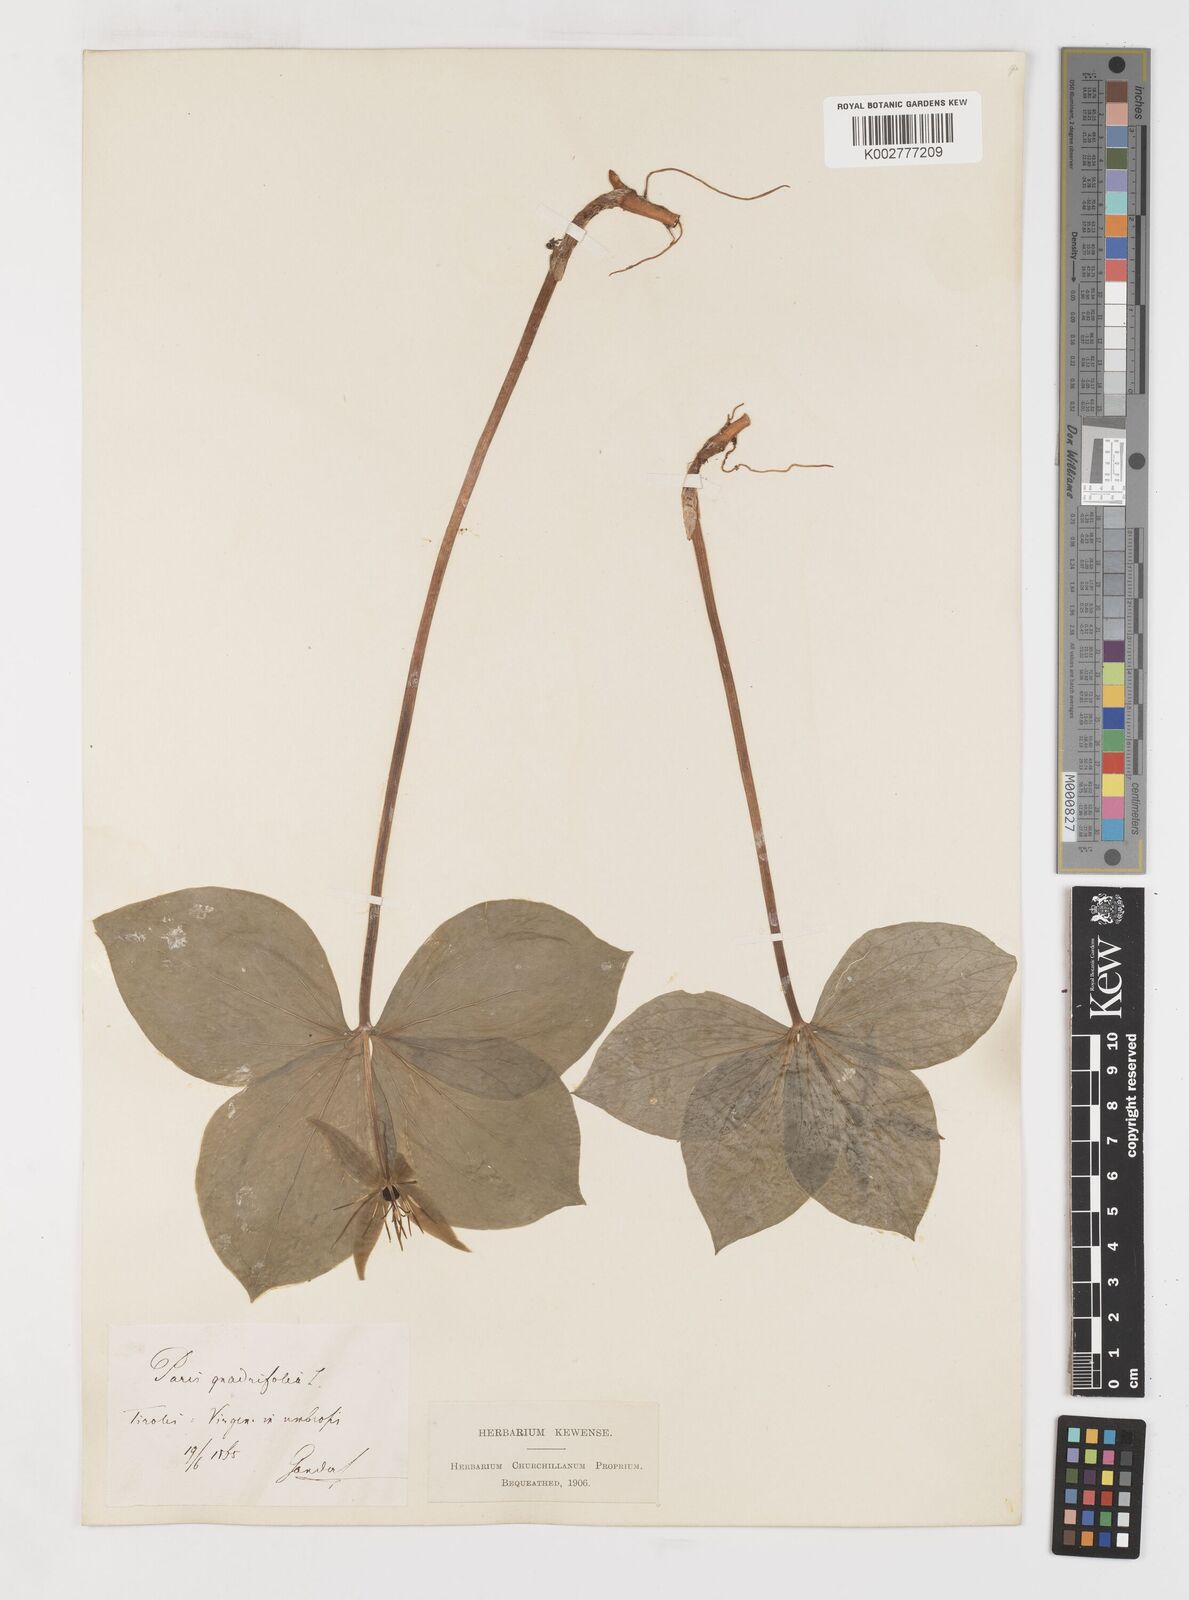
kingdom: Plantae
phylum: Tracheophyta
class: Liliopsida
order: Liliales
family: Melanthiaceae
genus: Paris
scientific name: Paris quadrifolia
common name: Herb-paris
